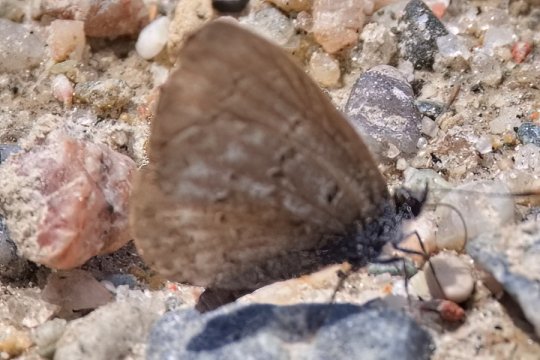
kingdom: Animalia
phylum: Arthropoda
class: Insecta
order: Lepidoptera
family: Lycaenidae
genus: Celastrina
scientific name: Celastrina lucia
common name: Northern Spring Azure
